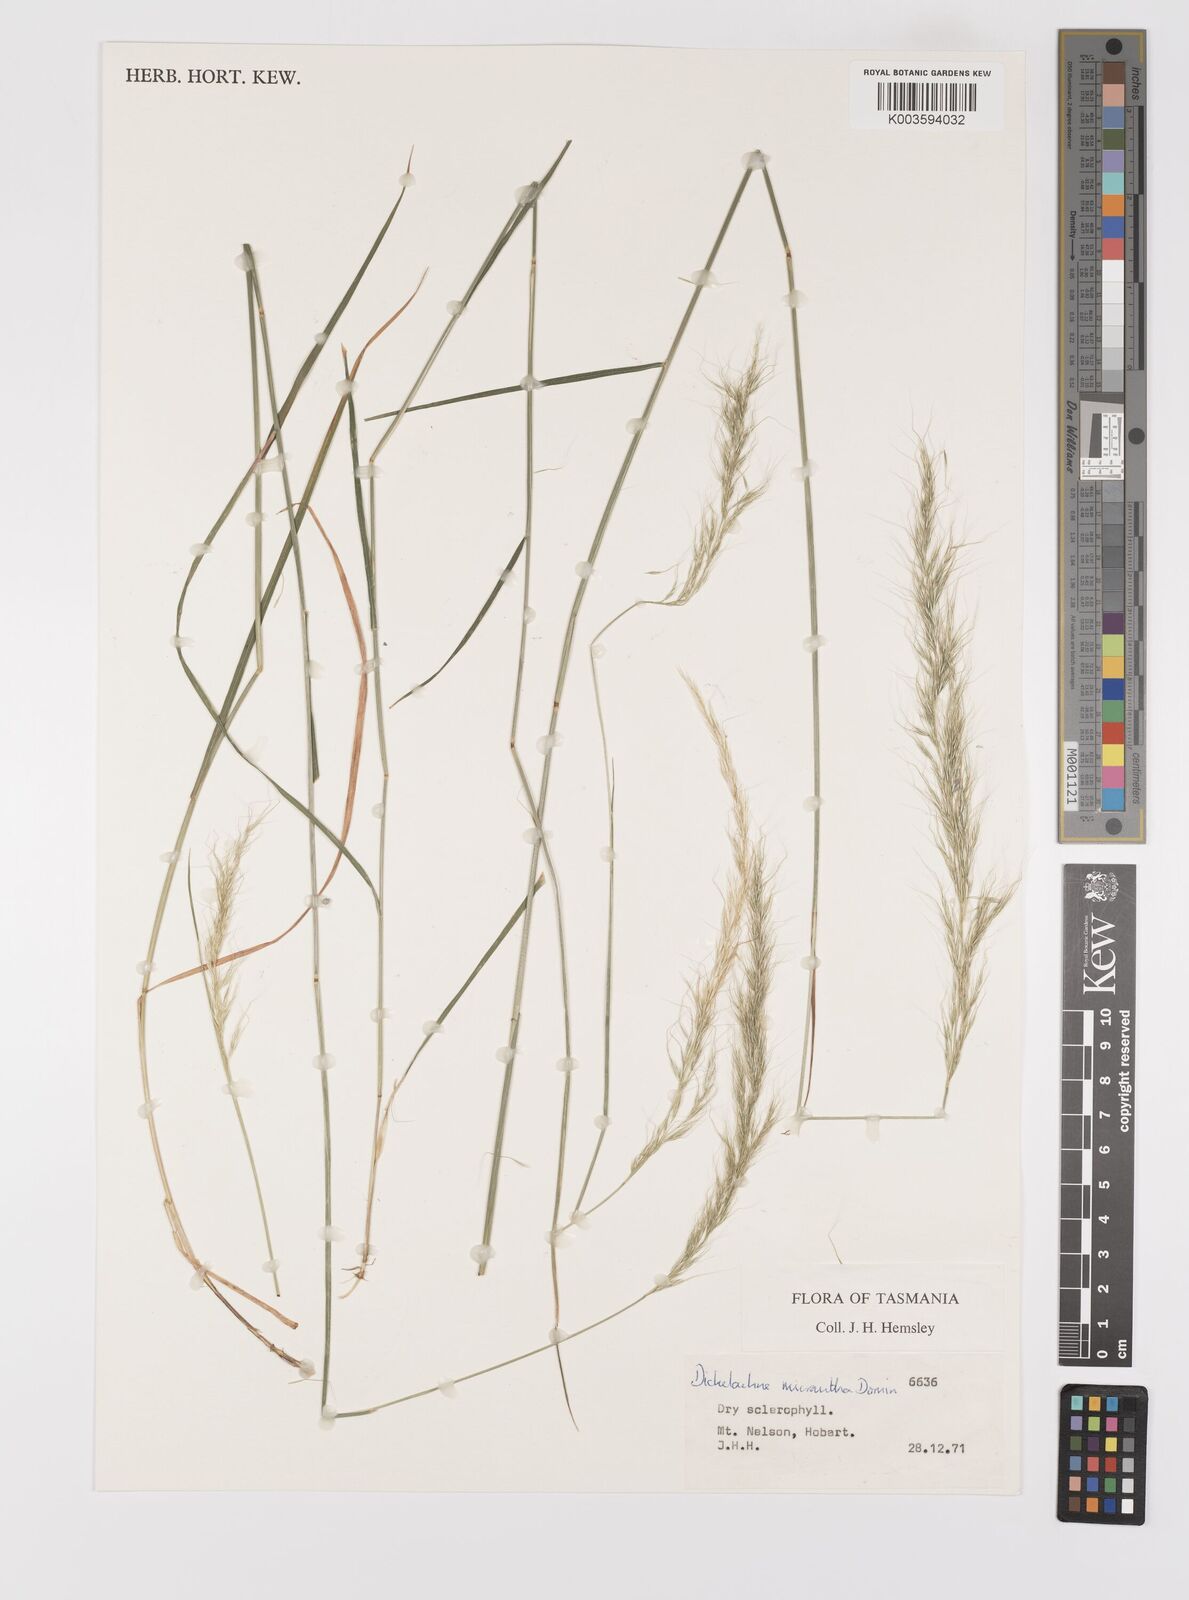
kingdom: Plantae
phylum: Tracheophyta
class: Liliopsida
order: Poales
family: Poaceae
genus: Dichelachne
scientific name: Dichelachne micrantha
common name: Plumegrass
